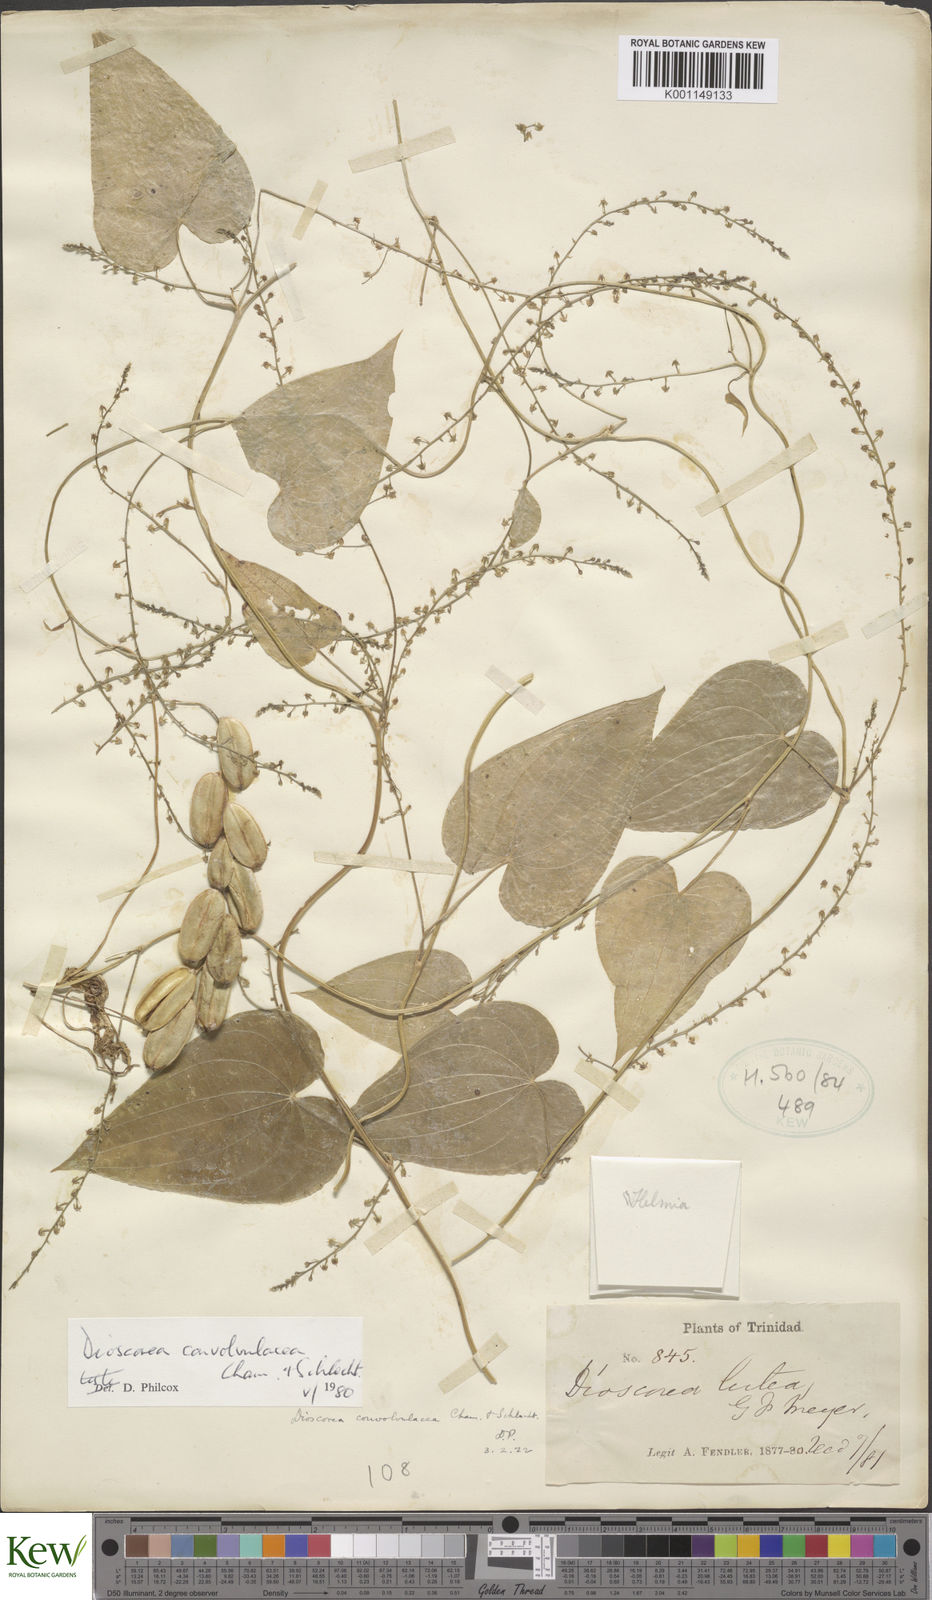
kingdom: Plantae
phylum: Tracheophyta
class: Liliopsida
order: Dioscoreales
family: Dioscoreaceae
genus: Dioscorea
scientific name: Dioscorea convolvulacea
